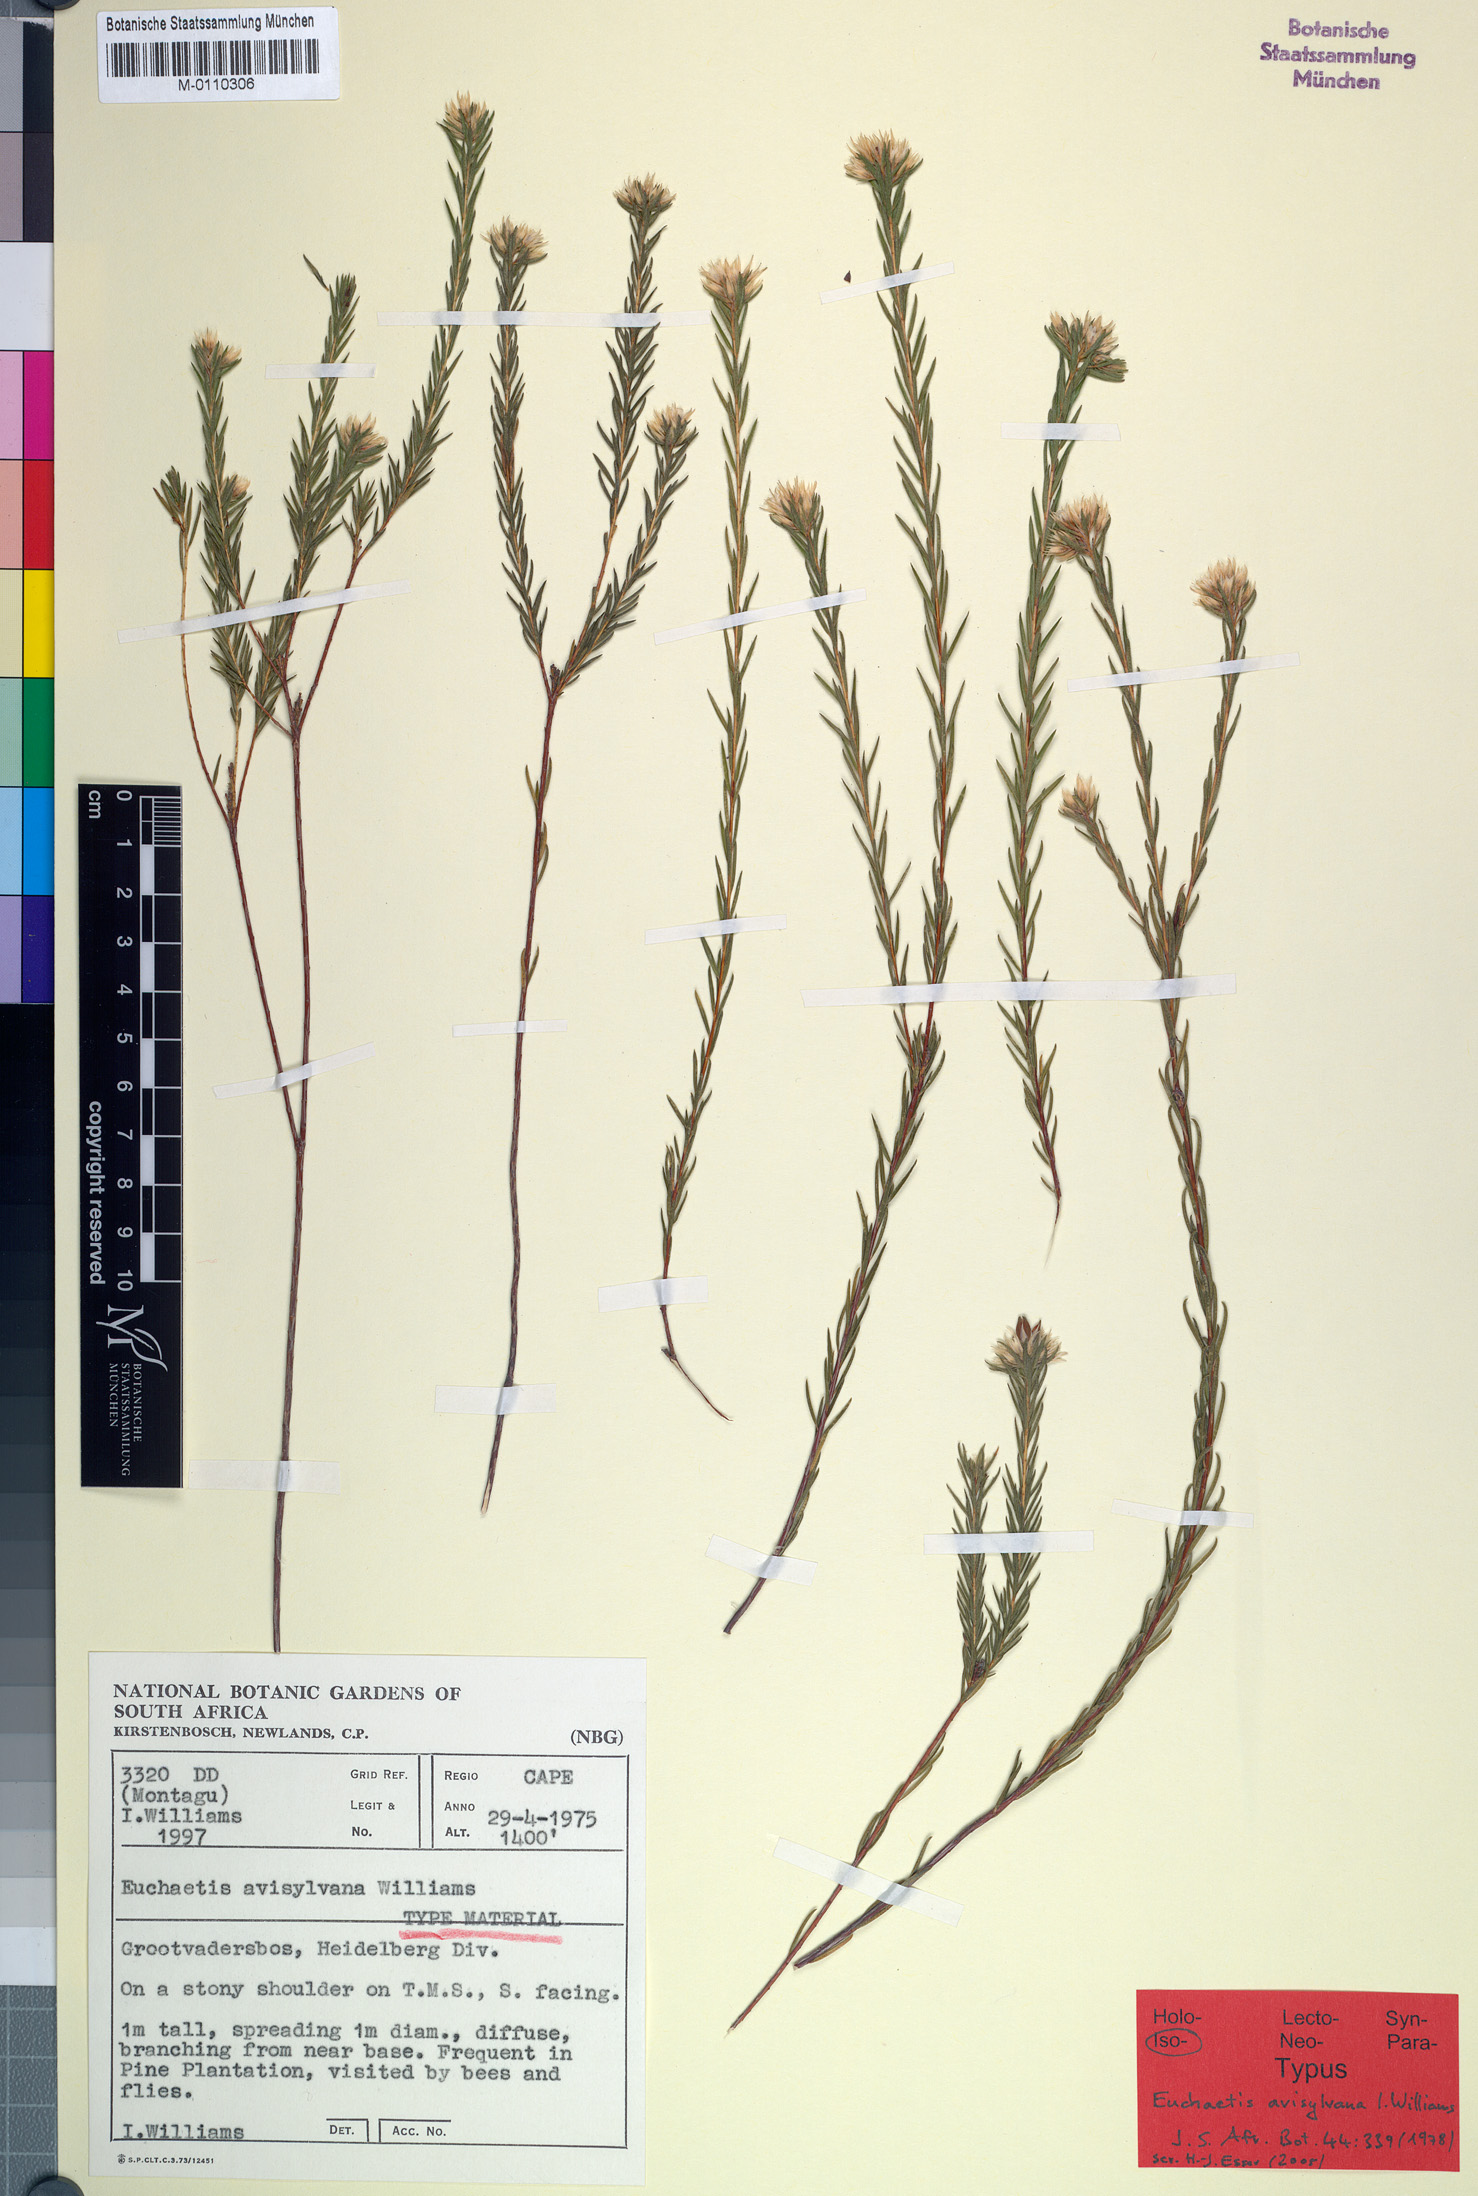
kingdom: Plantae
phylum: Tracheophyta
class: Magnoliopsida
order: Sapindales
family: Rutaceae
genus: Euchaetis
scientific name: Euchaetis avisylvana
